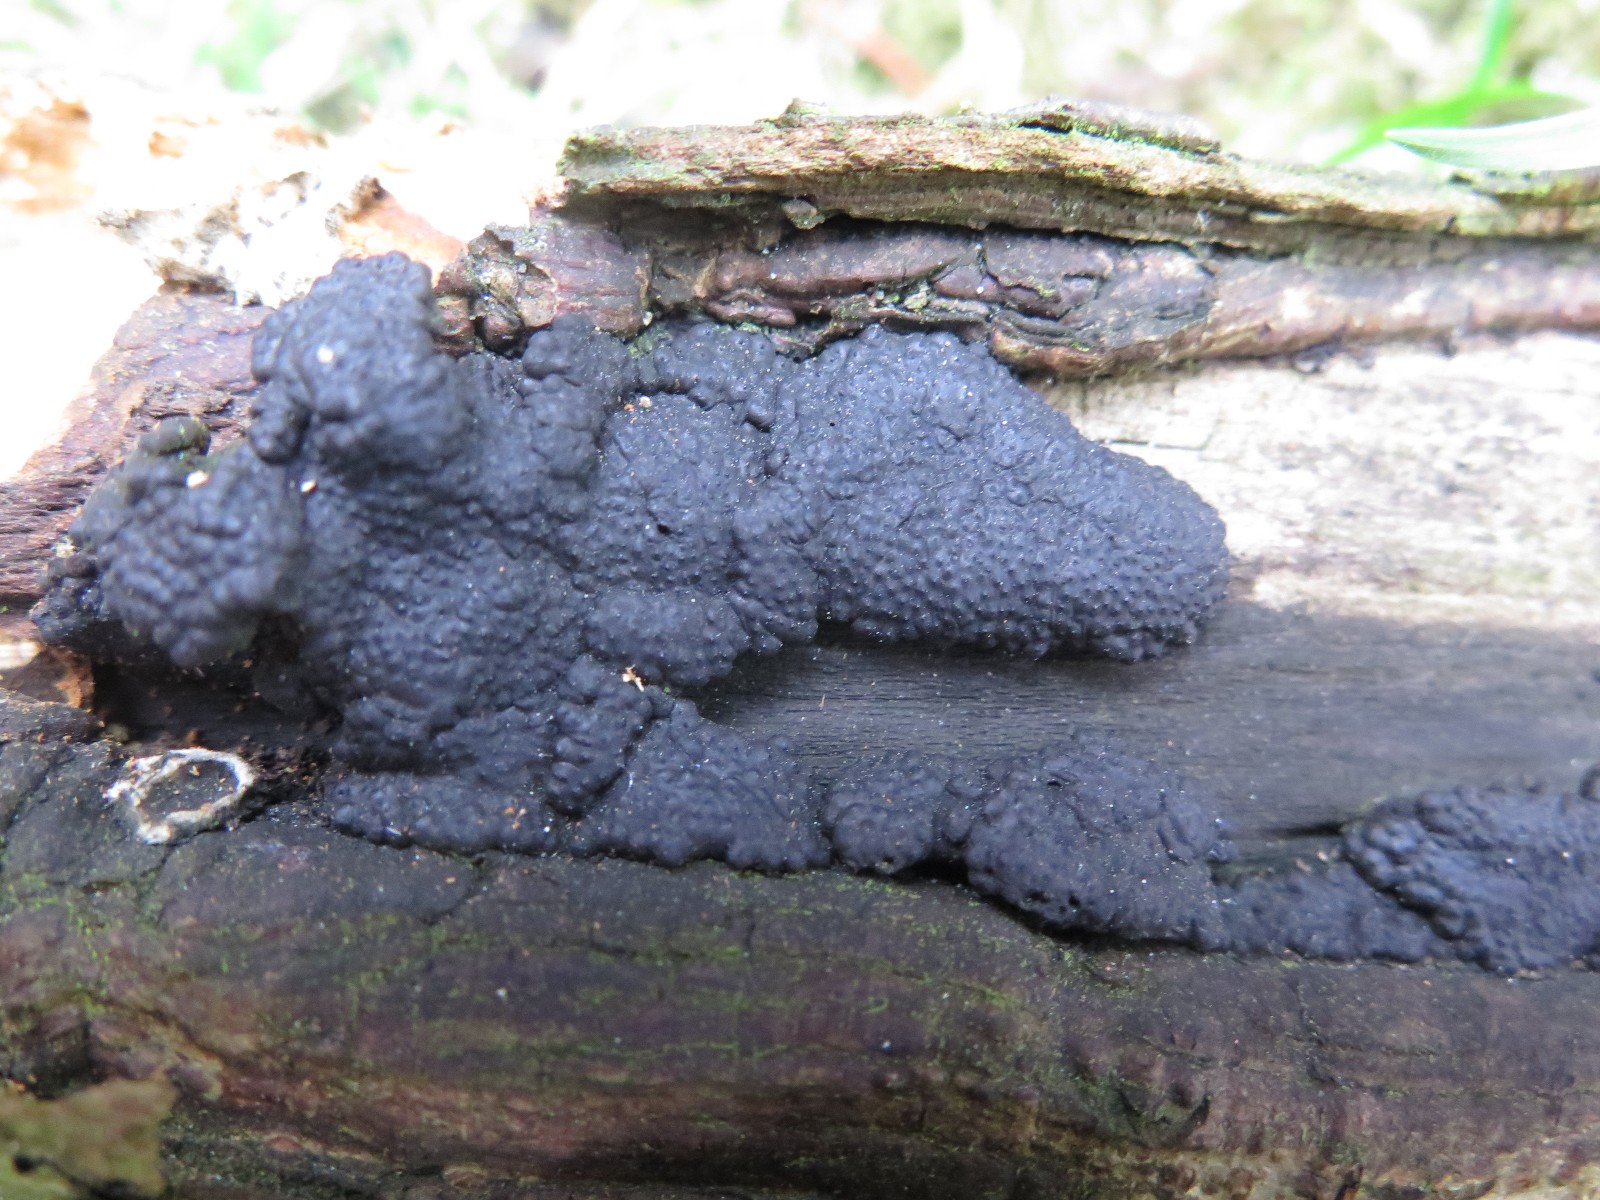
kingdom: Fungi
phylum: Ascomycota
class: Sordariomycetes
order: Xylariales
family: Hypoxylaceae
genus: Jackrogersella
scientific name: Jackrogersella multiformis
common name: foranderlig kulbær
